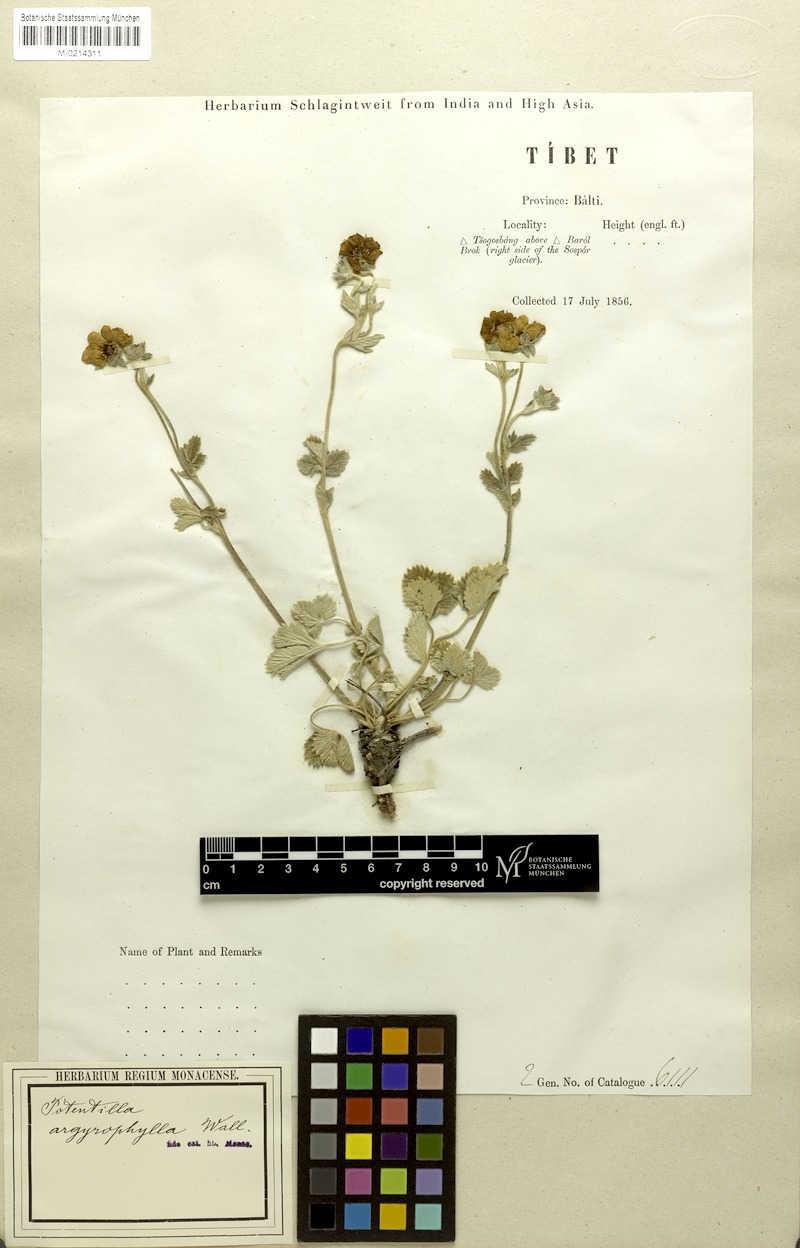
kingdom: Plantae
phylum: Tracheophyta
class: Magnoliopsida
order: Rosales
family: Rosaceae
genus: Potentilla
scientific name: Potentilla cathaclines
